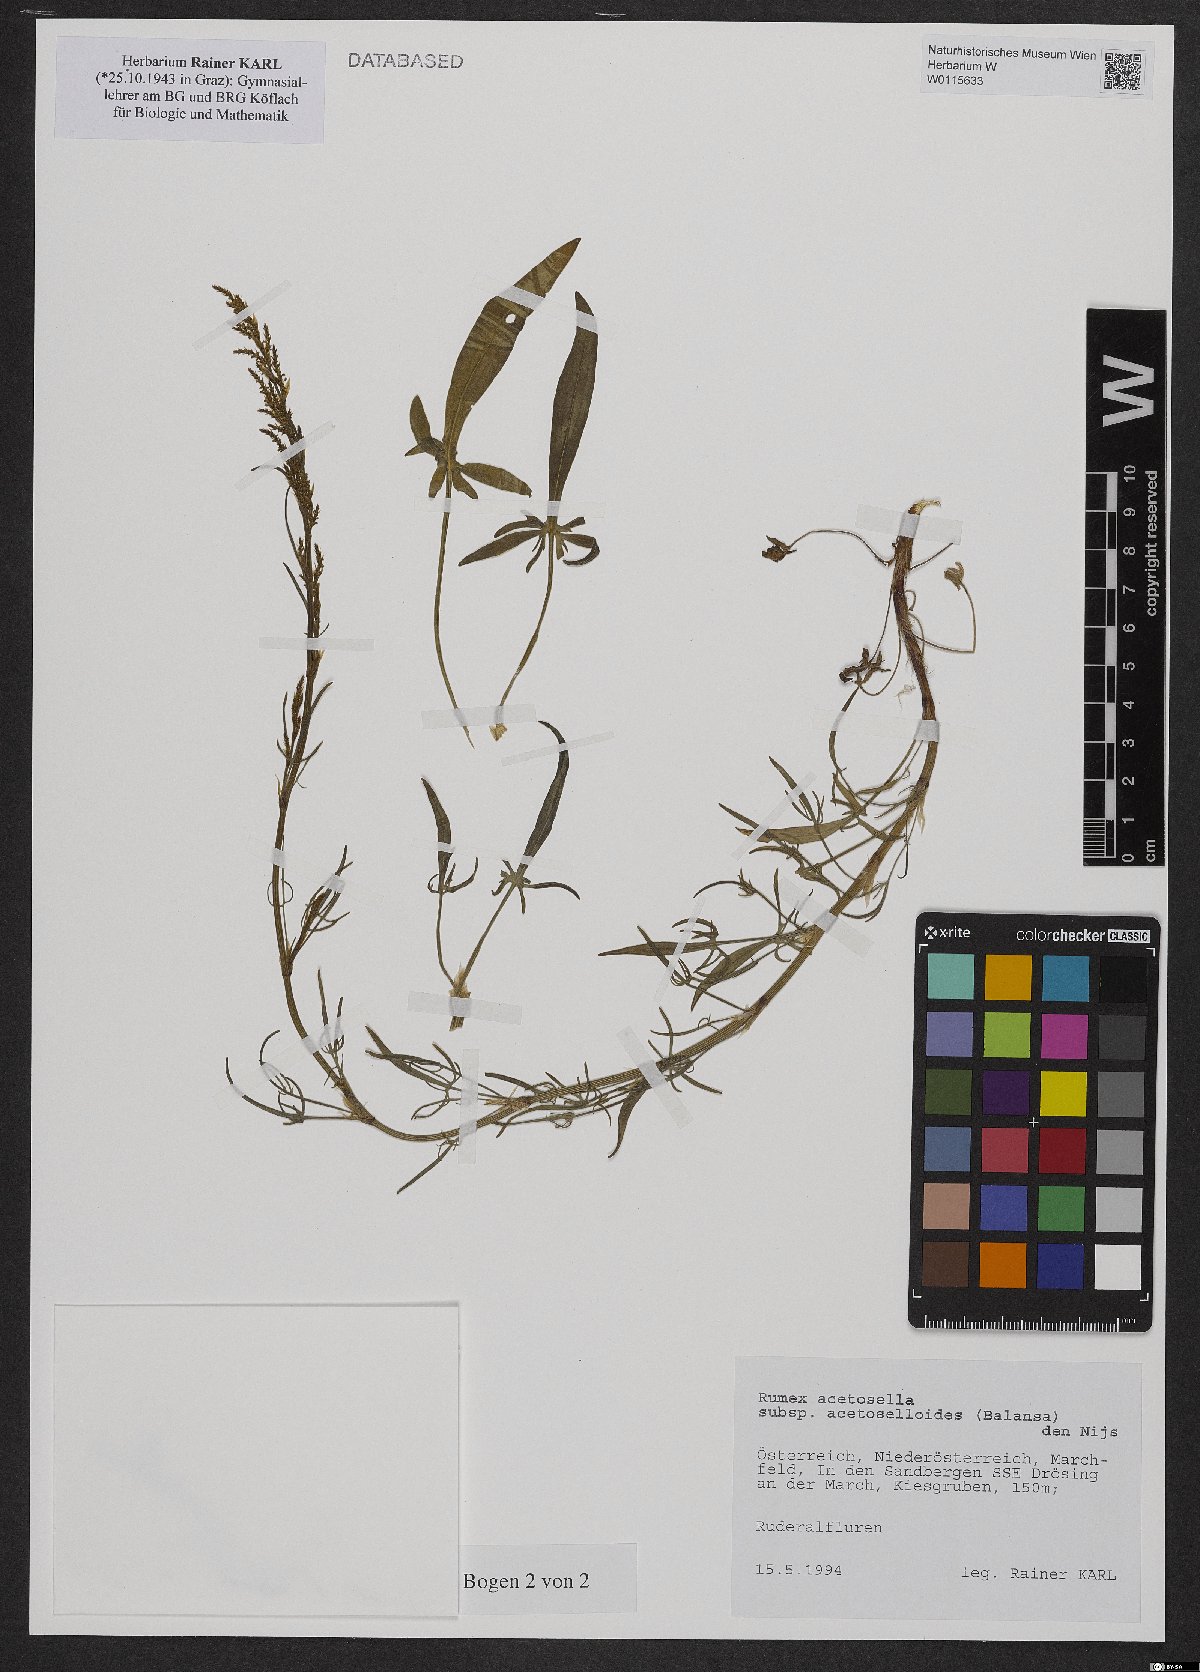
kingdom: Plantae
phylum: Tracheophyta
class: Magnoliopsida
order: Caryophyllales
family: Polygonaceae
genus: Rumex
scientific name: Rumex acetosella
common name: Common sheep sorrel
